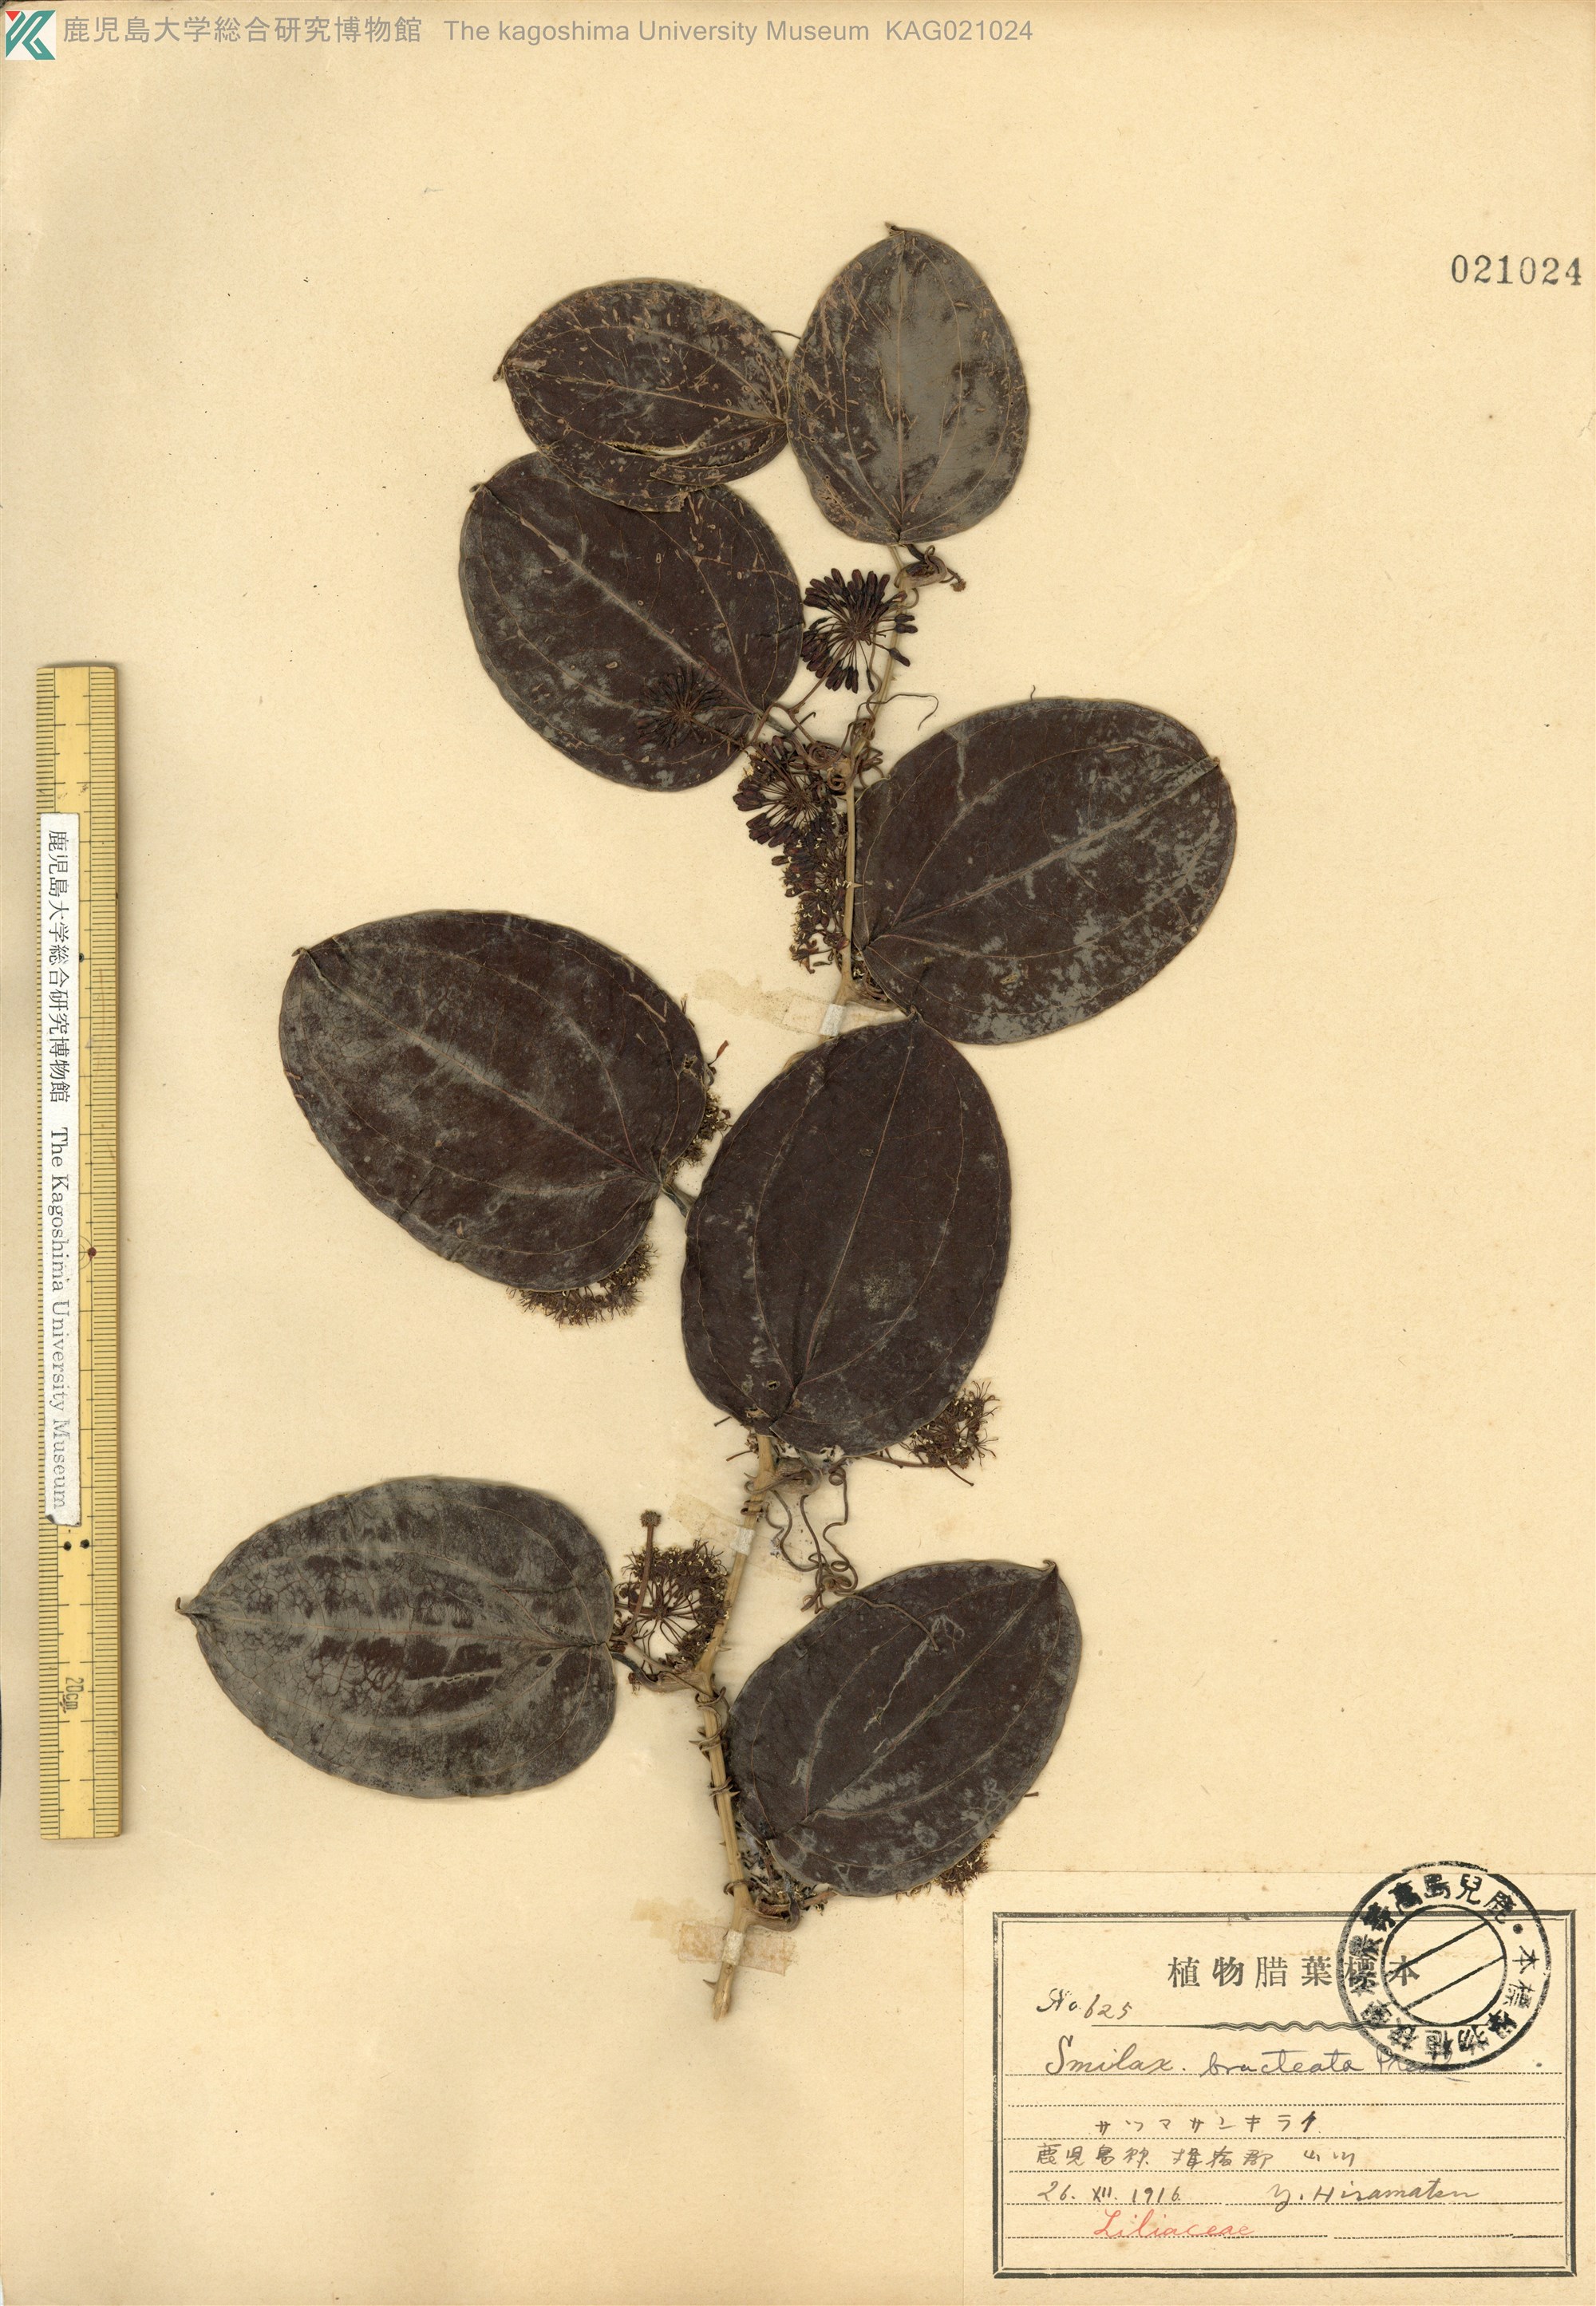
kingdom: Plantae
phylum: Tracheophyta
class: Liliopsida
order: Liliales
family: Smilacaceae
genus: Smilax
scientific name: Smilax bracteata
